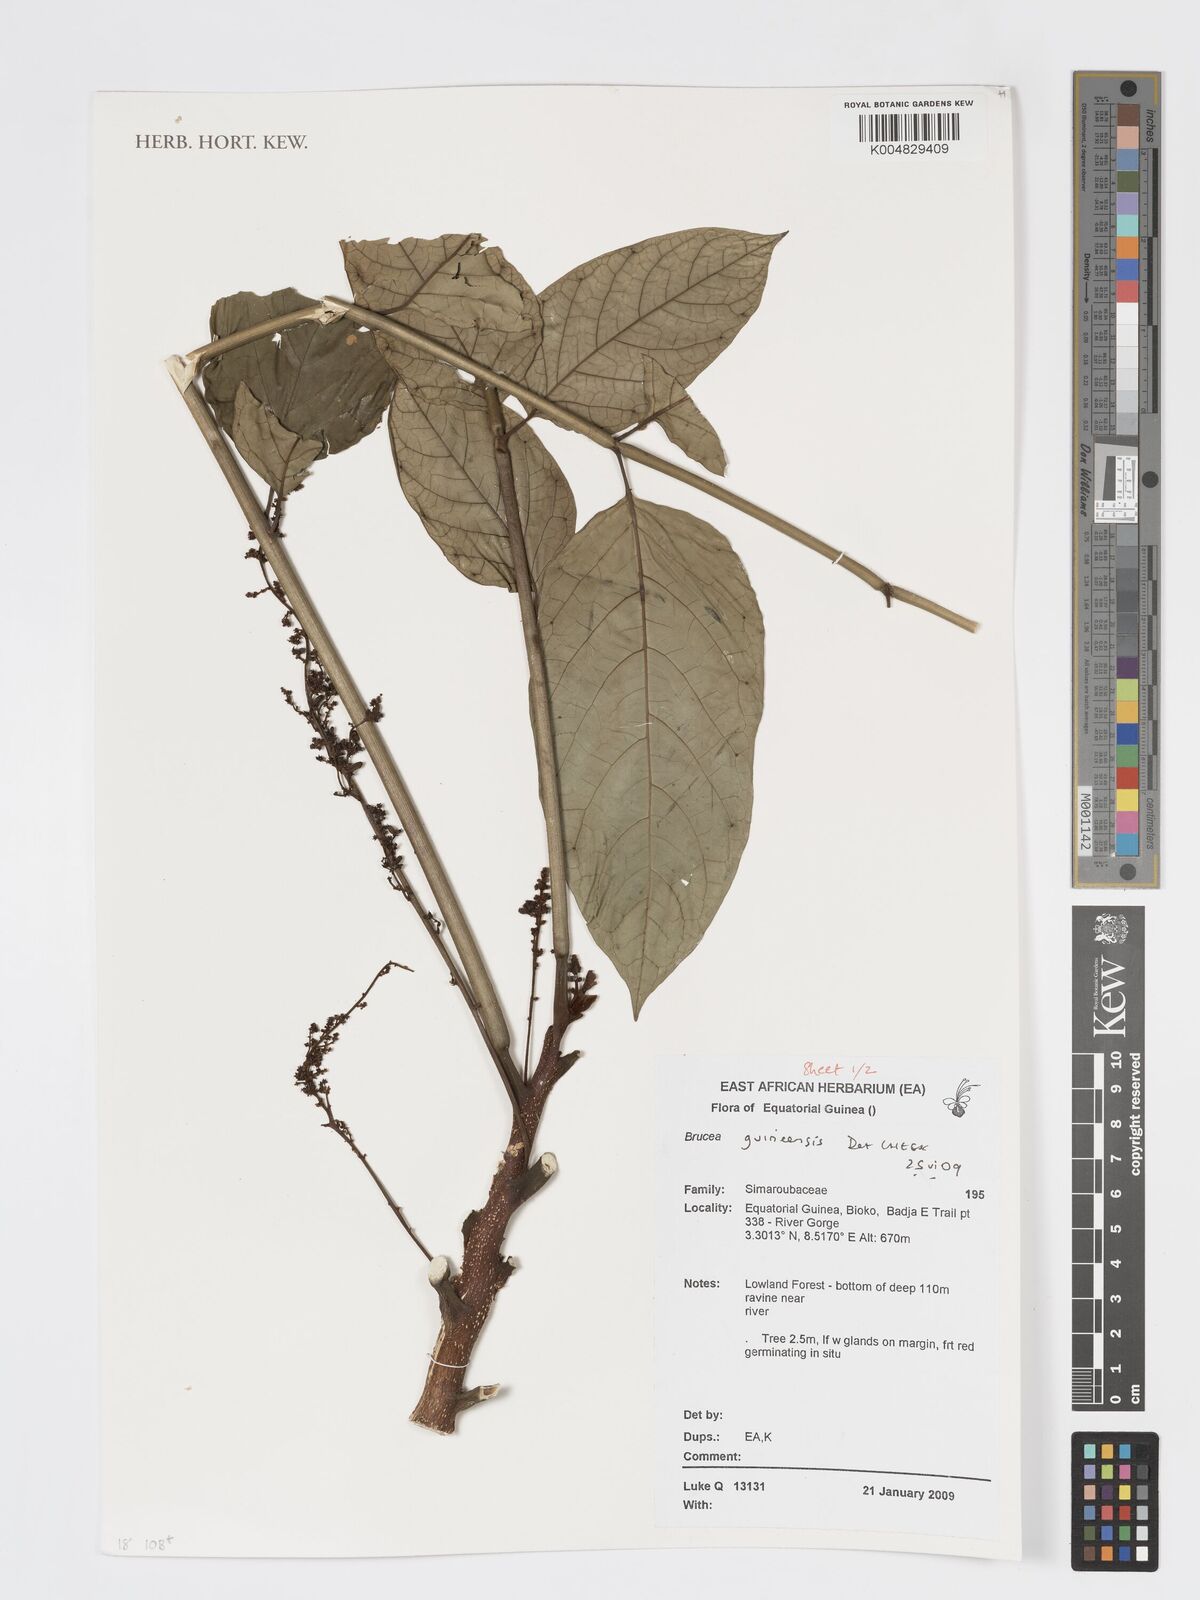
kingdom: Plantae
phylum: Tracheophyta
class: Magnoliopsida
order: Sapindales
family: Anacardiaceae
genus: Trichoscypha
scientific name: Trichoscypha smythei
